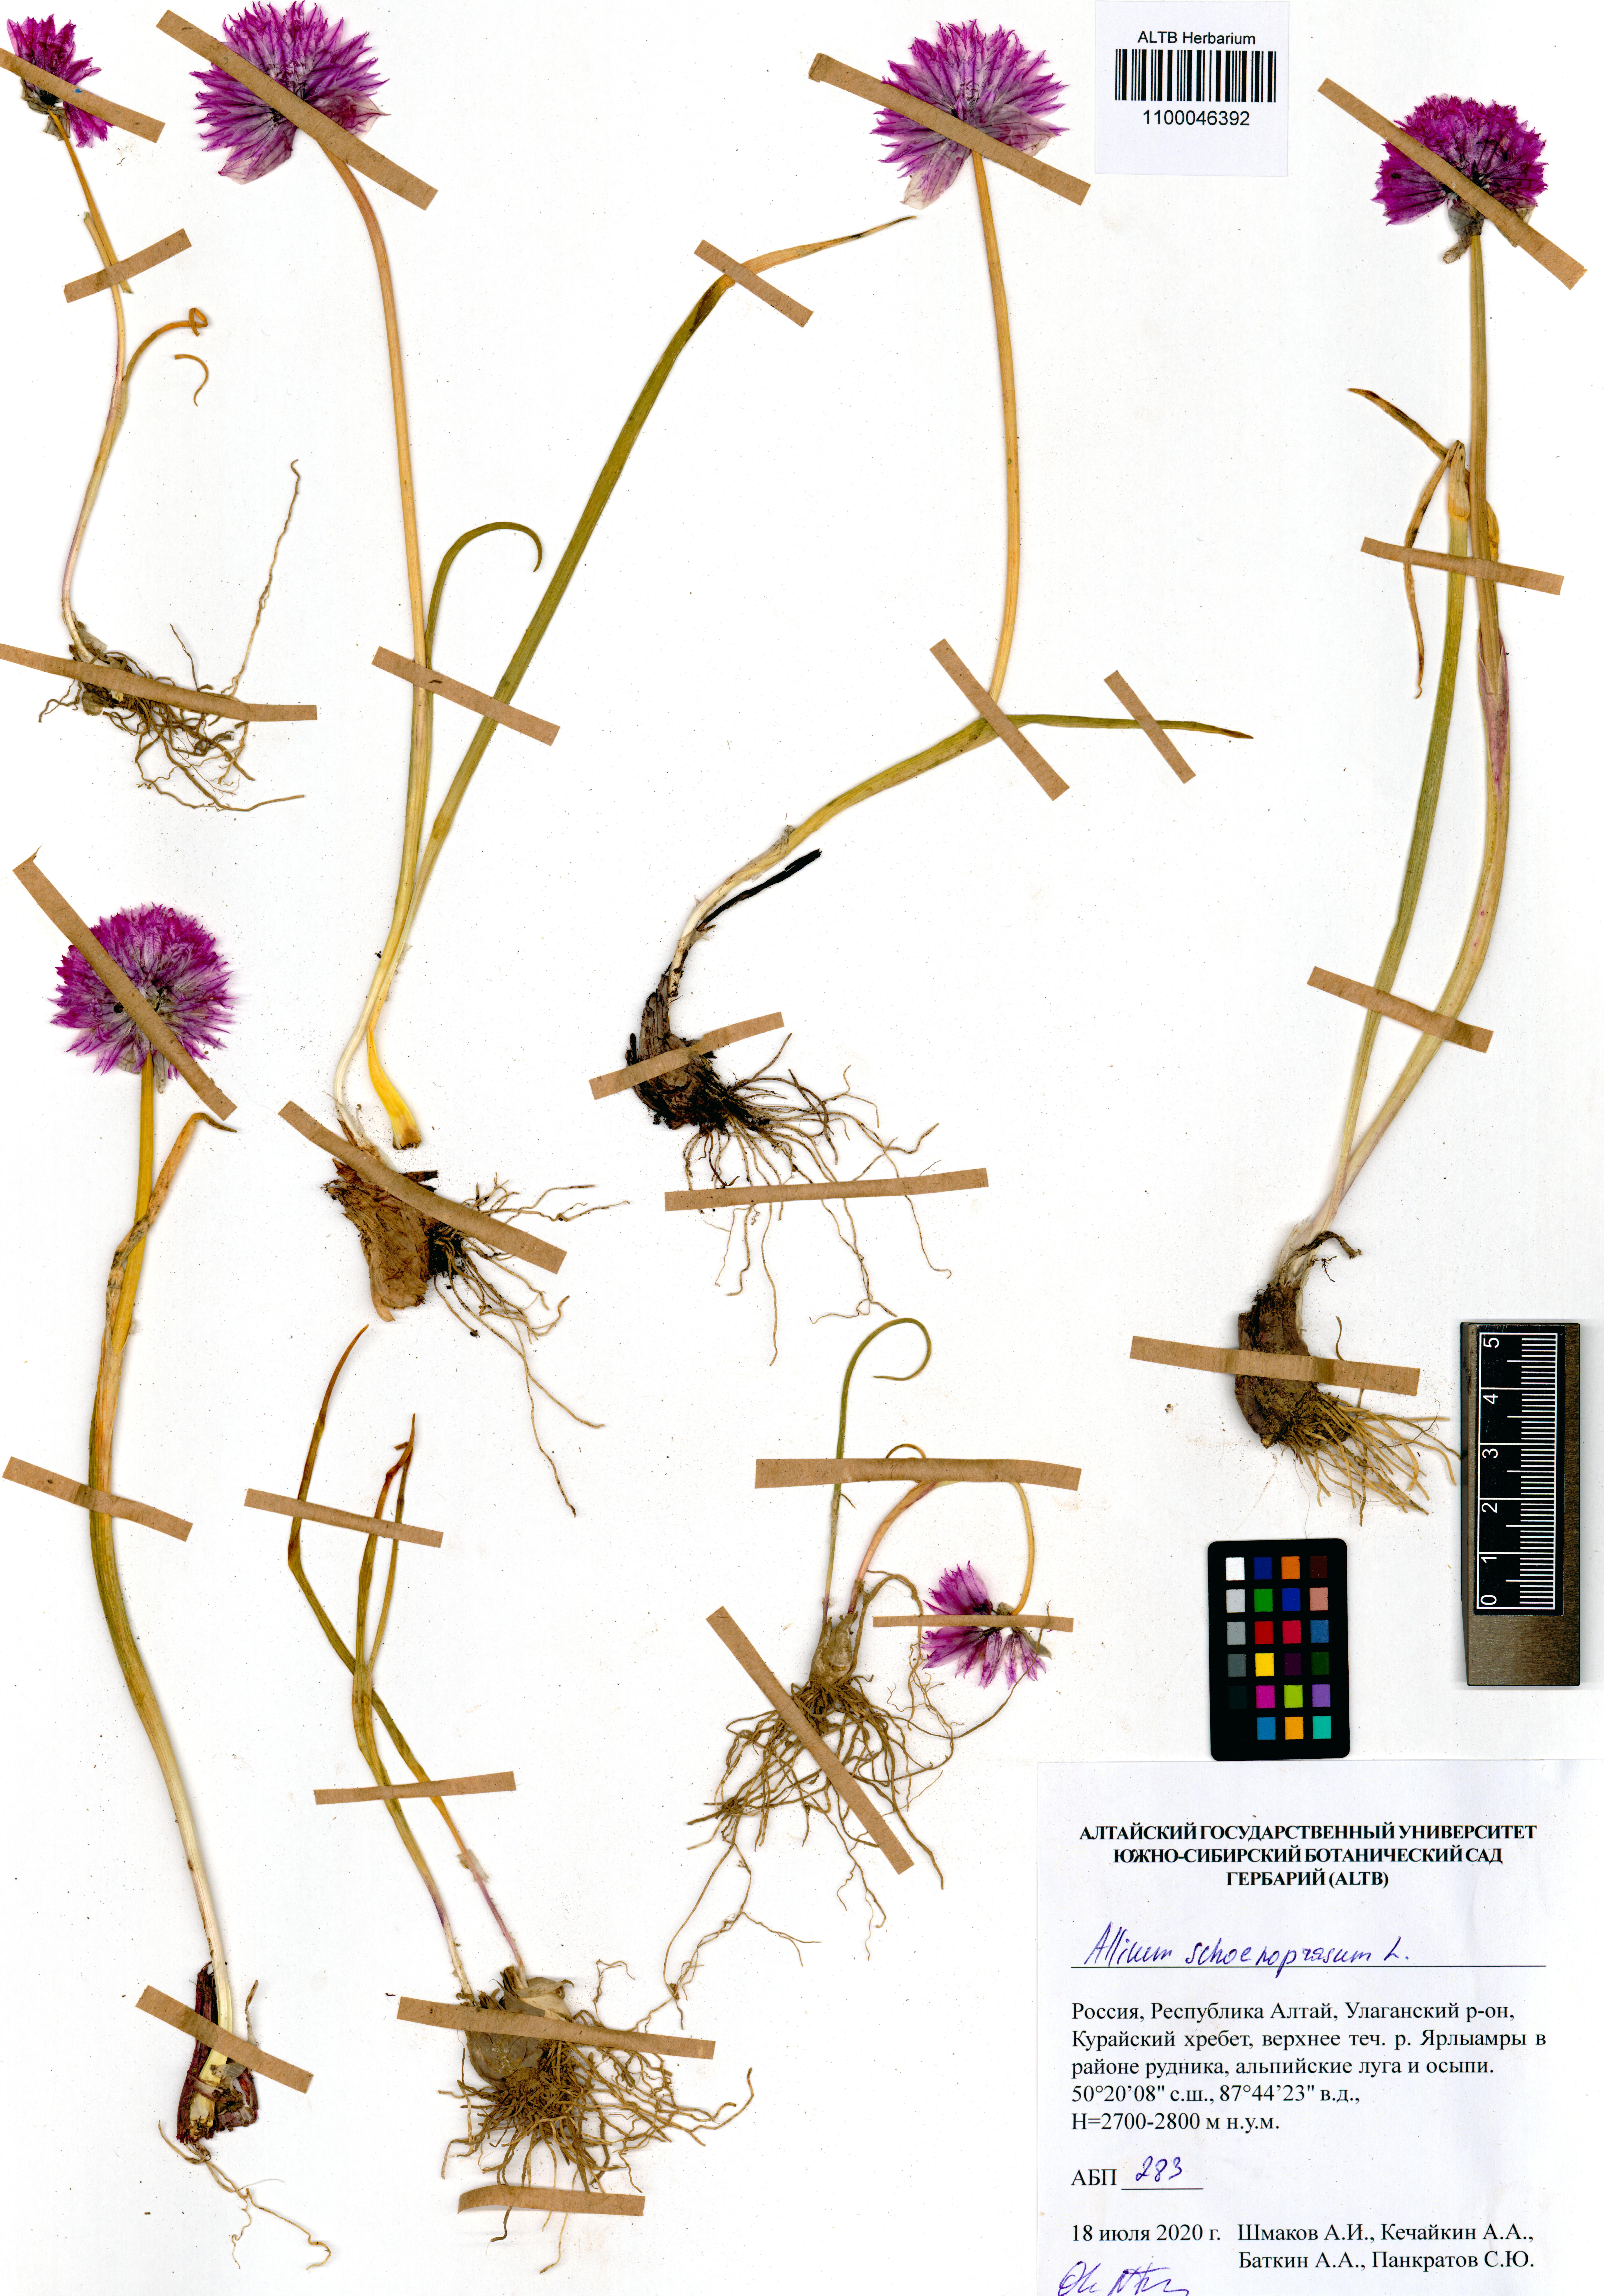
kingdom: Plantae
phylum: Tracheophyta
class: Liliopsida
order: Asparagales
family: Amaryllidaceae
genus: Allium
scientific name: Allium schoenoprasum
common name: Chives
